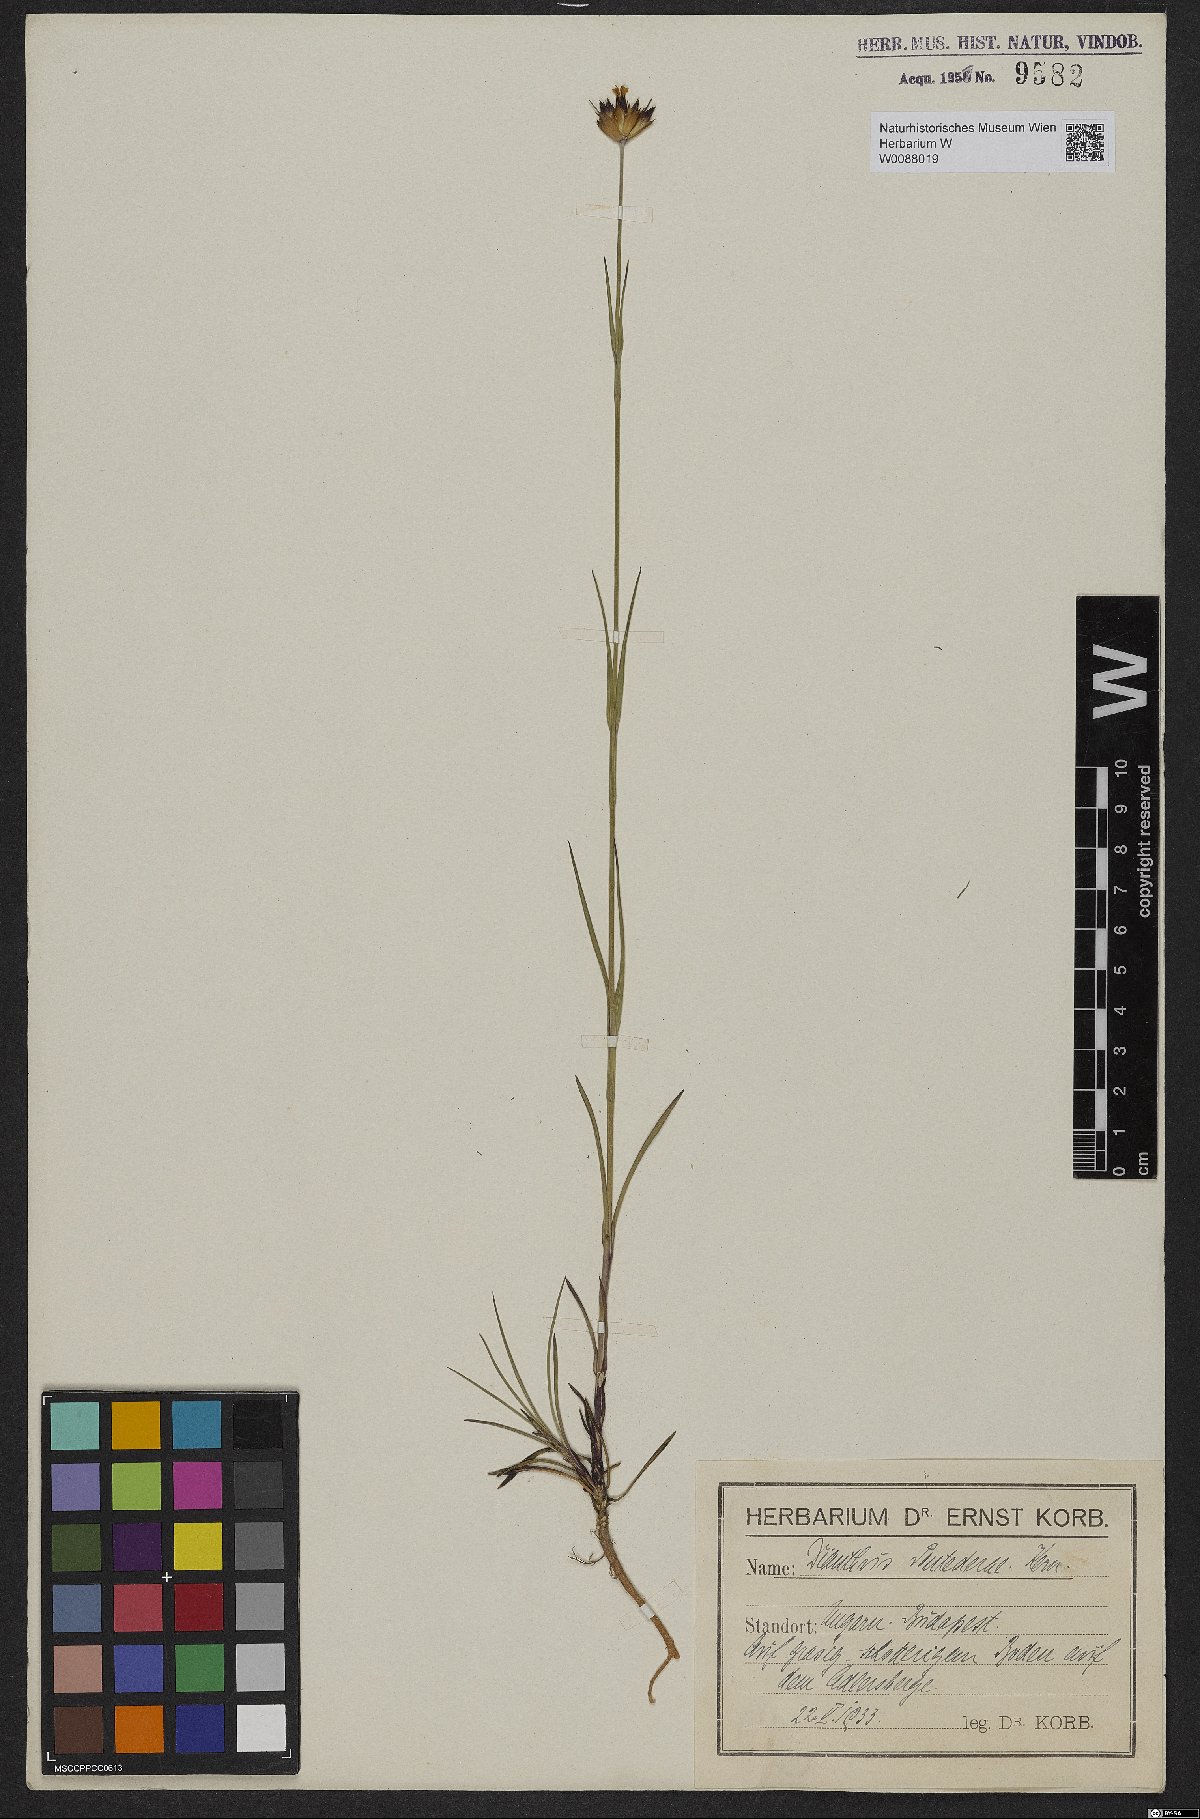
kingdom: Plantae
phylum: Tracheophyta
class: Magnoliopsida
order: Caryophyllales
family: Caryophyllaceae
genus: Dianthus
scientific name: Dianthus pontederae
